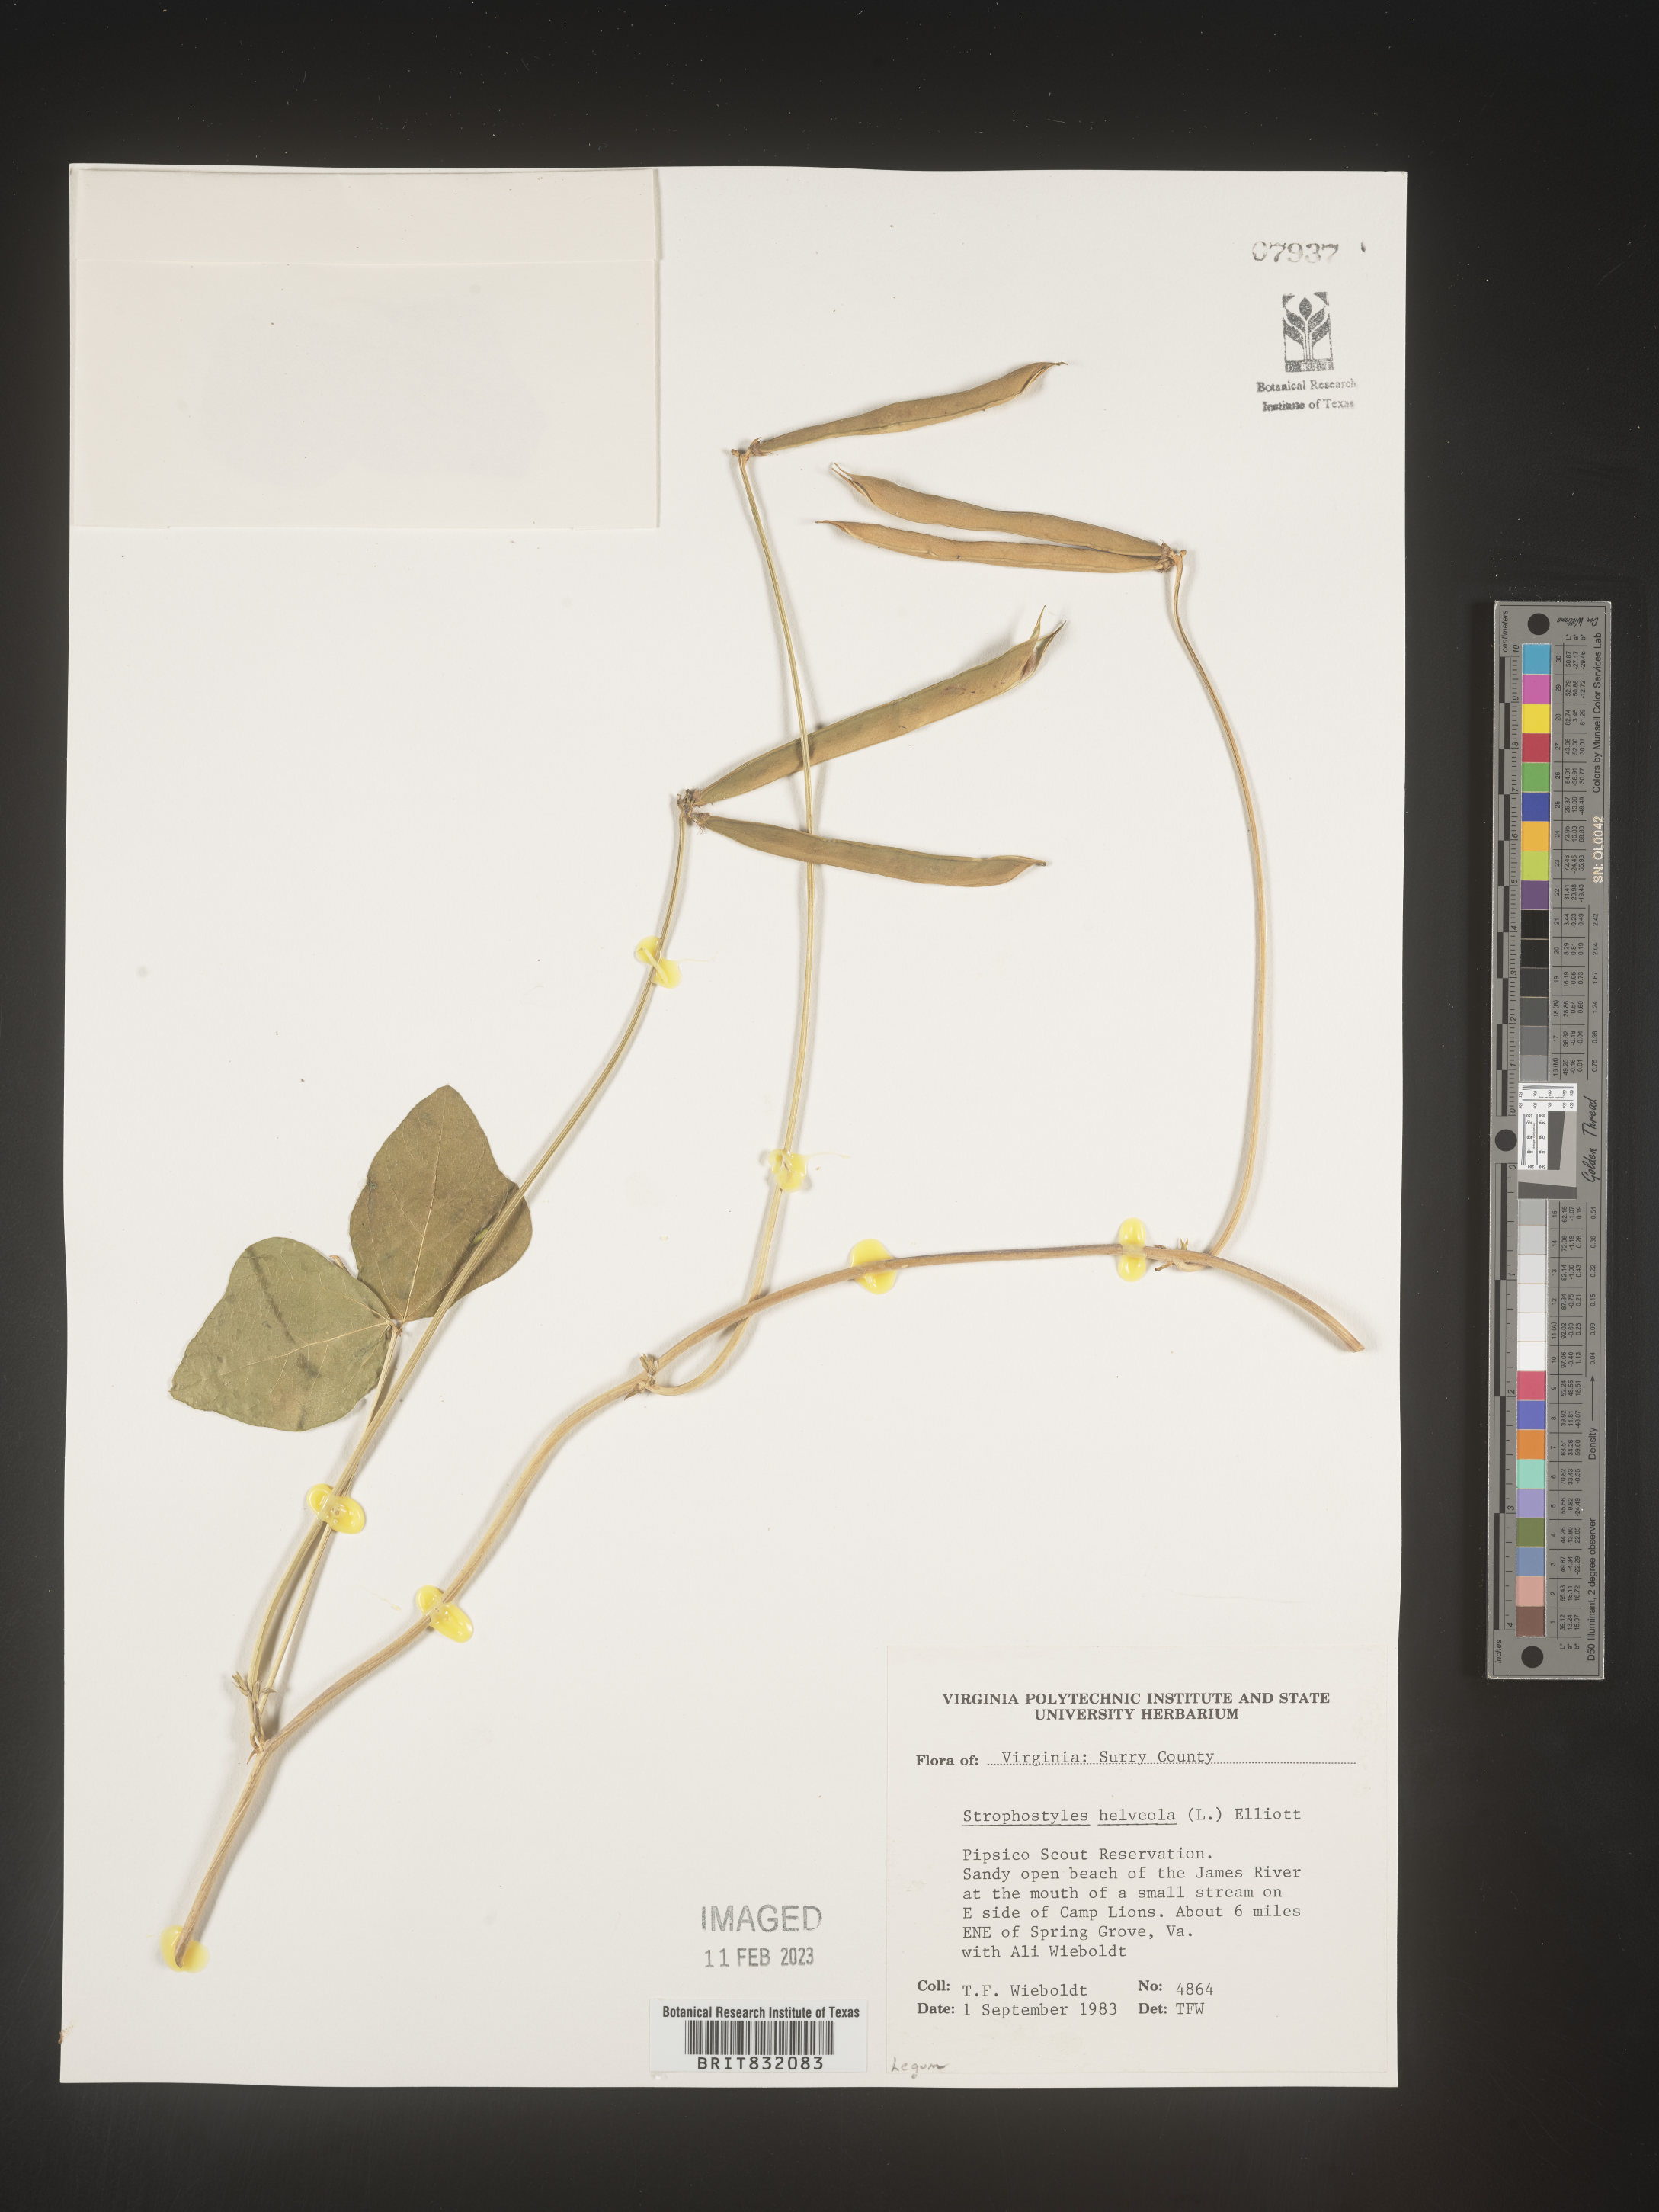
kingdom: Plantae
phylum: Tracheophyta
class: Magnoliopsida
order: Fabales
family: Fabaceae
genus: Strophostyles
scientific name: Strophostyles helvola
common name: Trailing wild bean
